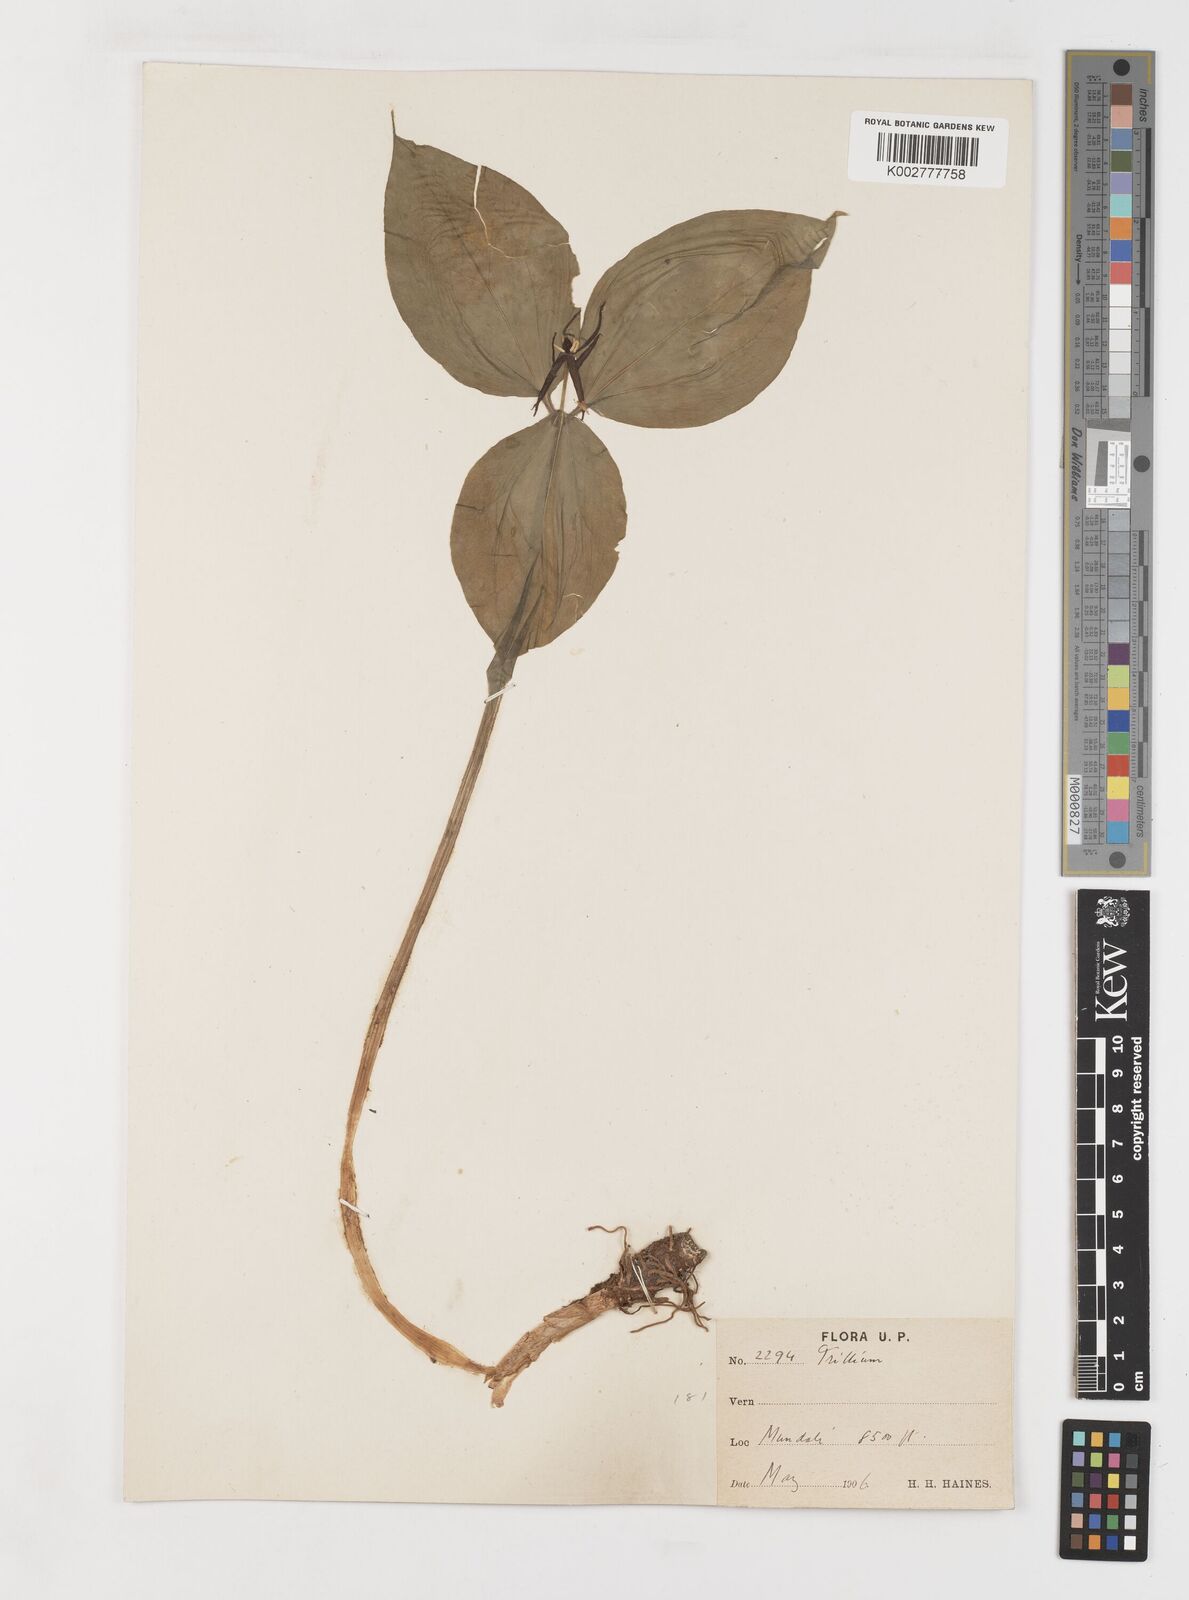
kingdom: Plantae
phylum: Tracheophyta
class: Liliopsida
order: Liliales
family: Melanthiaceae
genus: Trillium
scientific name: Trillium govanianum
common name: Himalayan trillium
